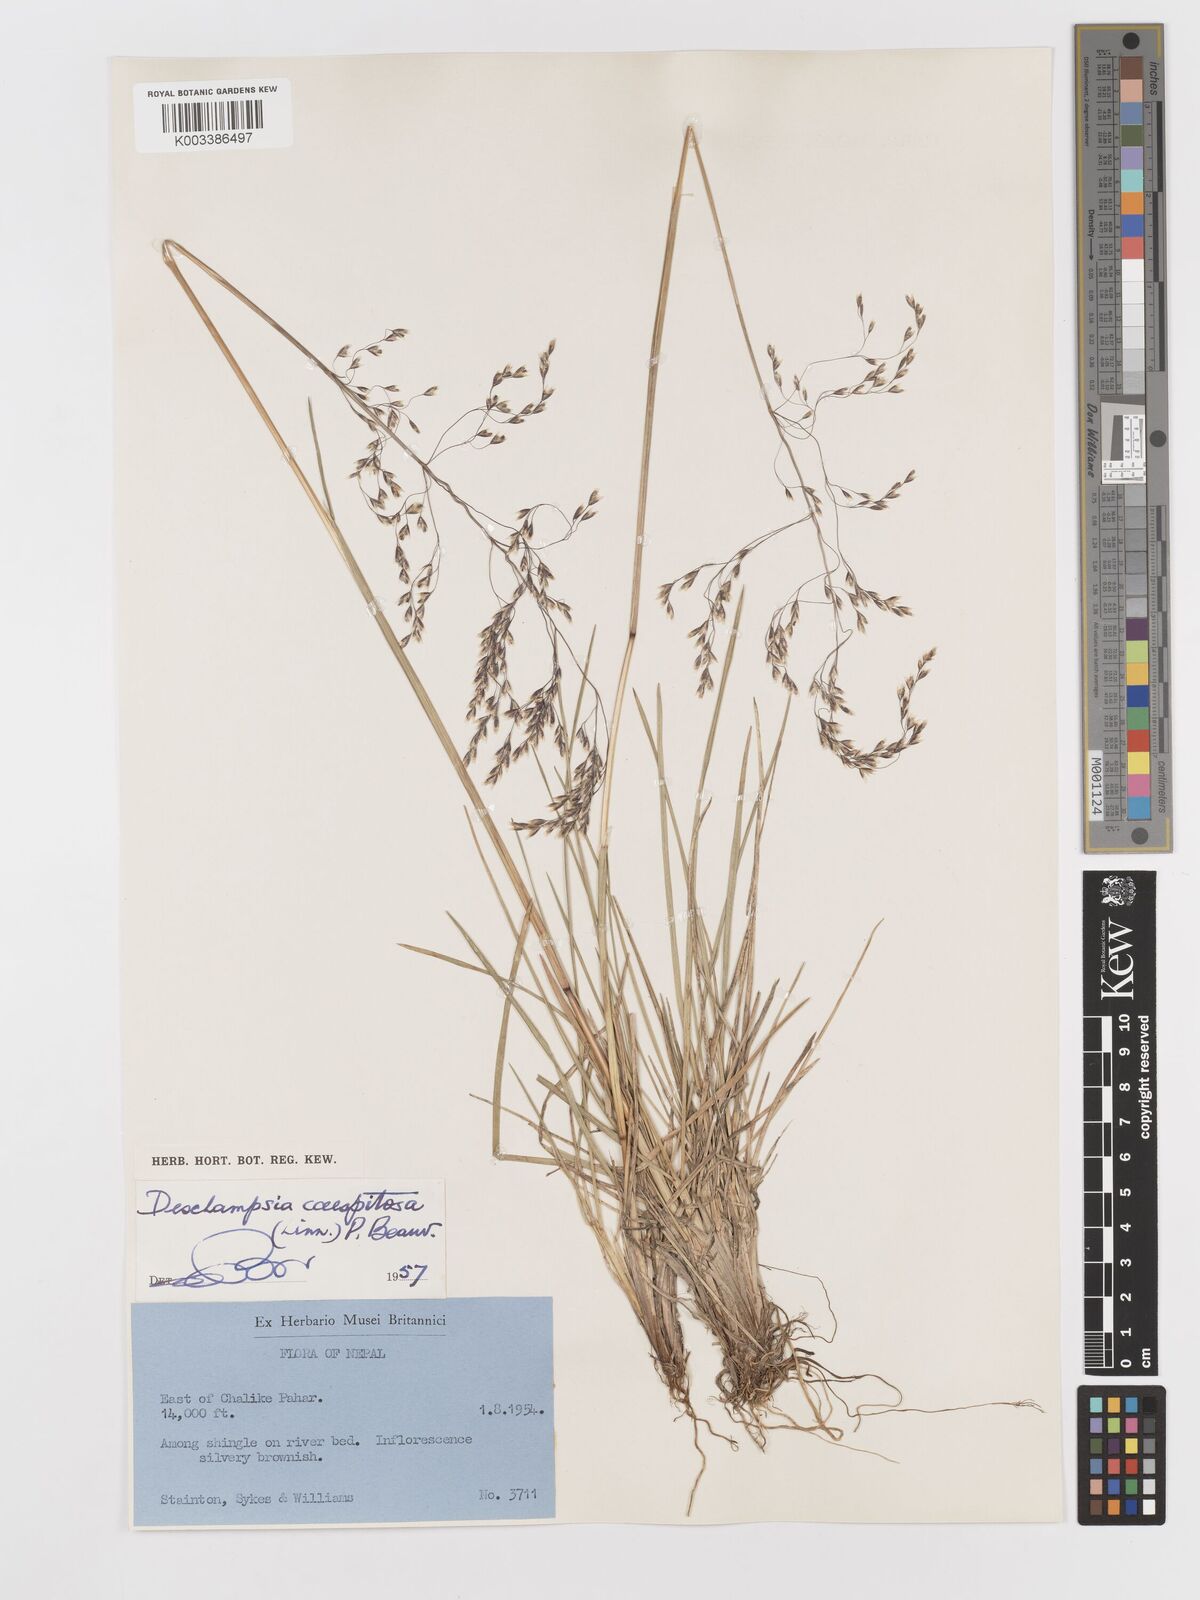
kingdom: Plantae
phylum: Tracheophyta
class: Liliopsida
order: Poales
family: Poaceae
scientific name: Poaceae
